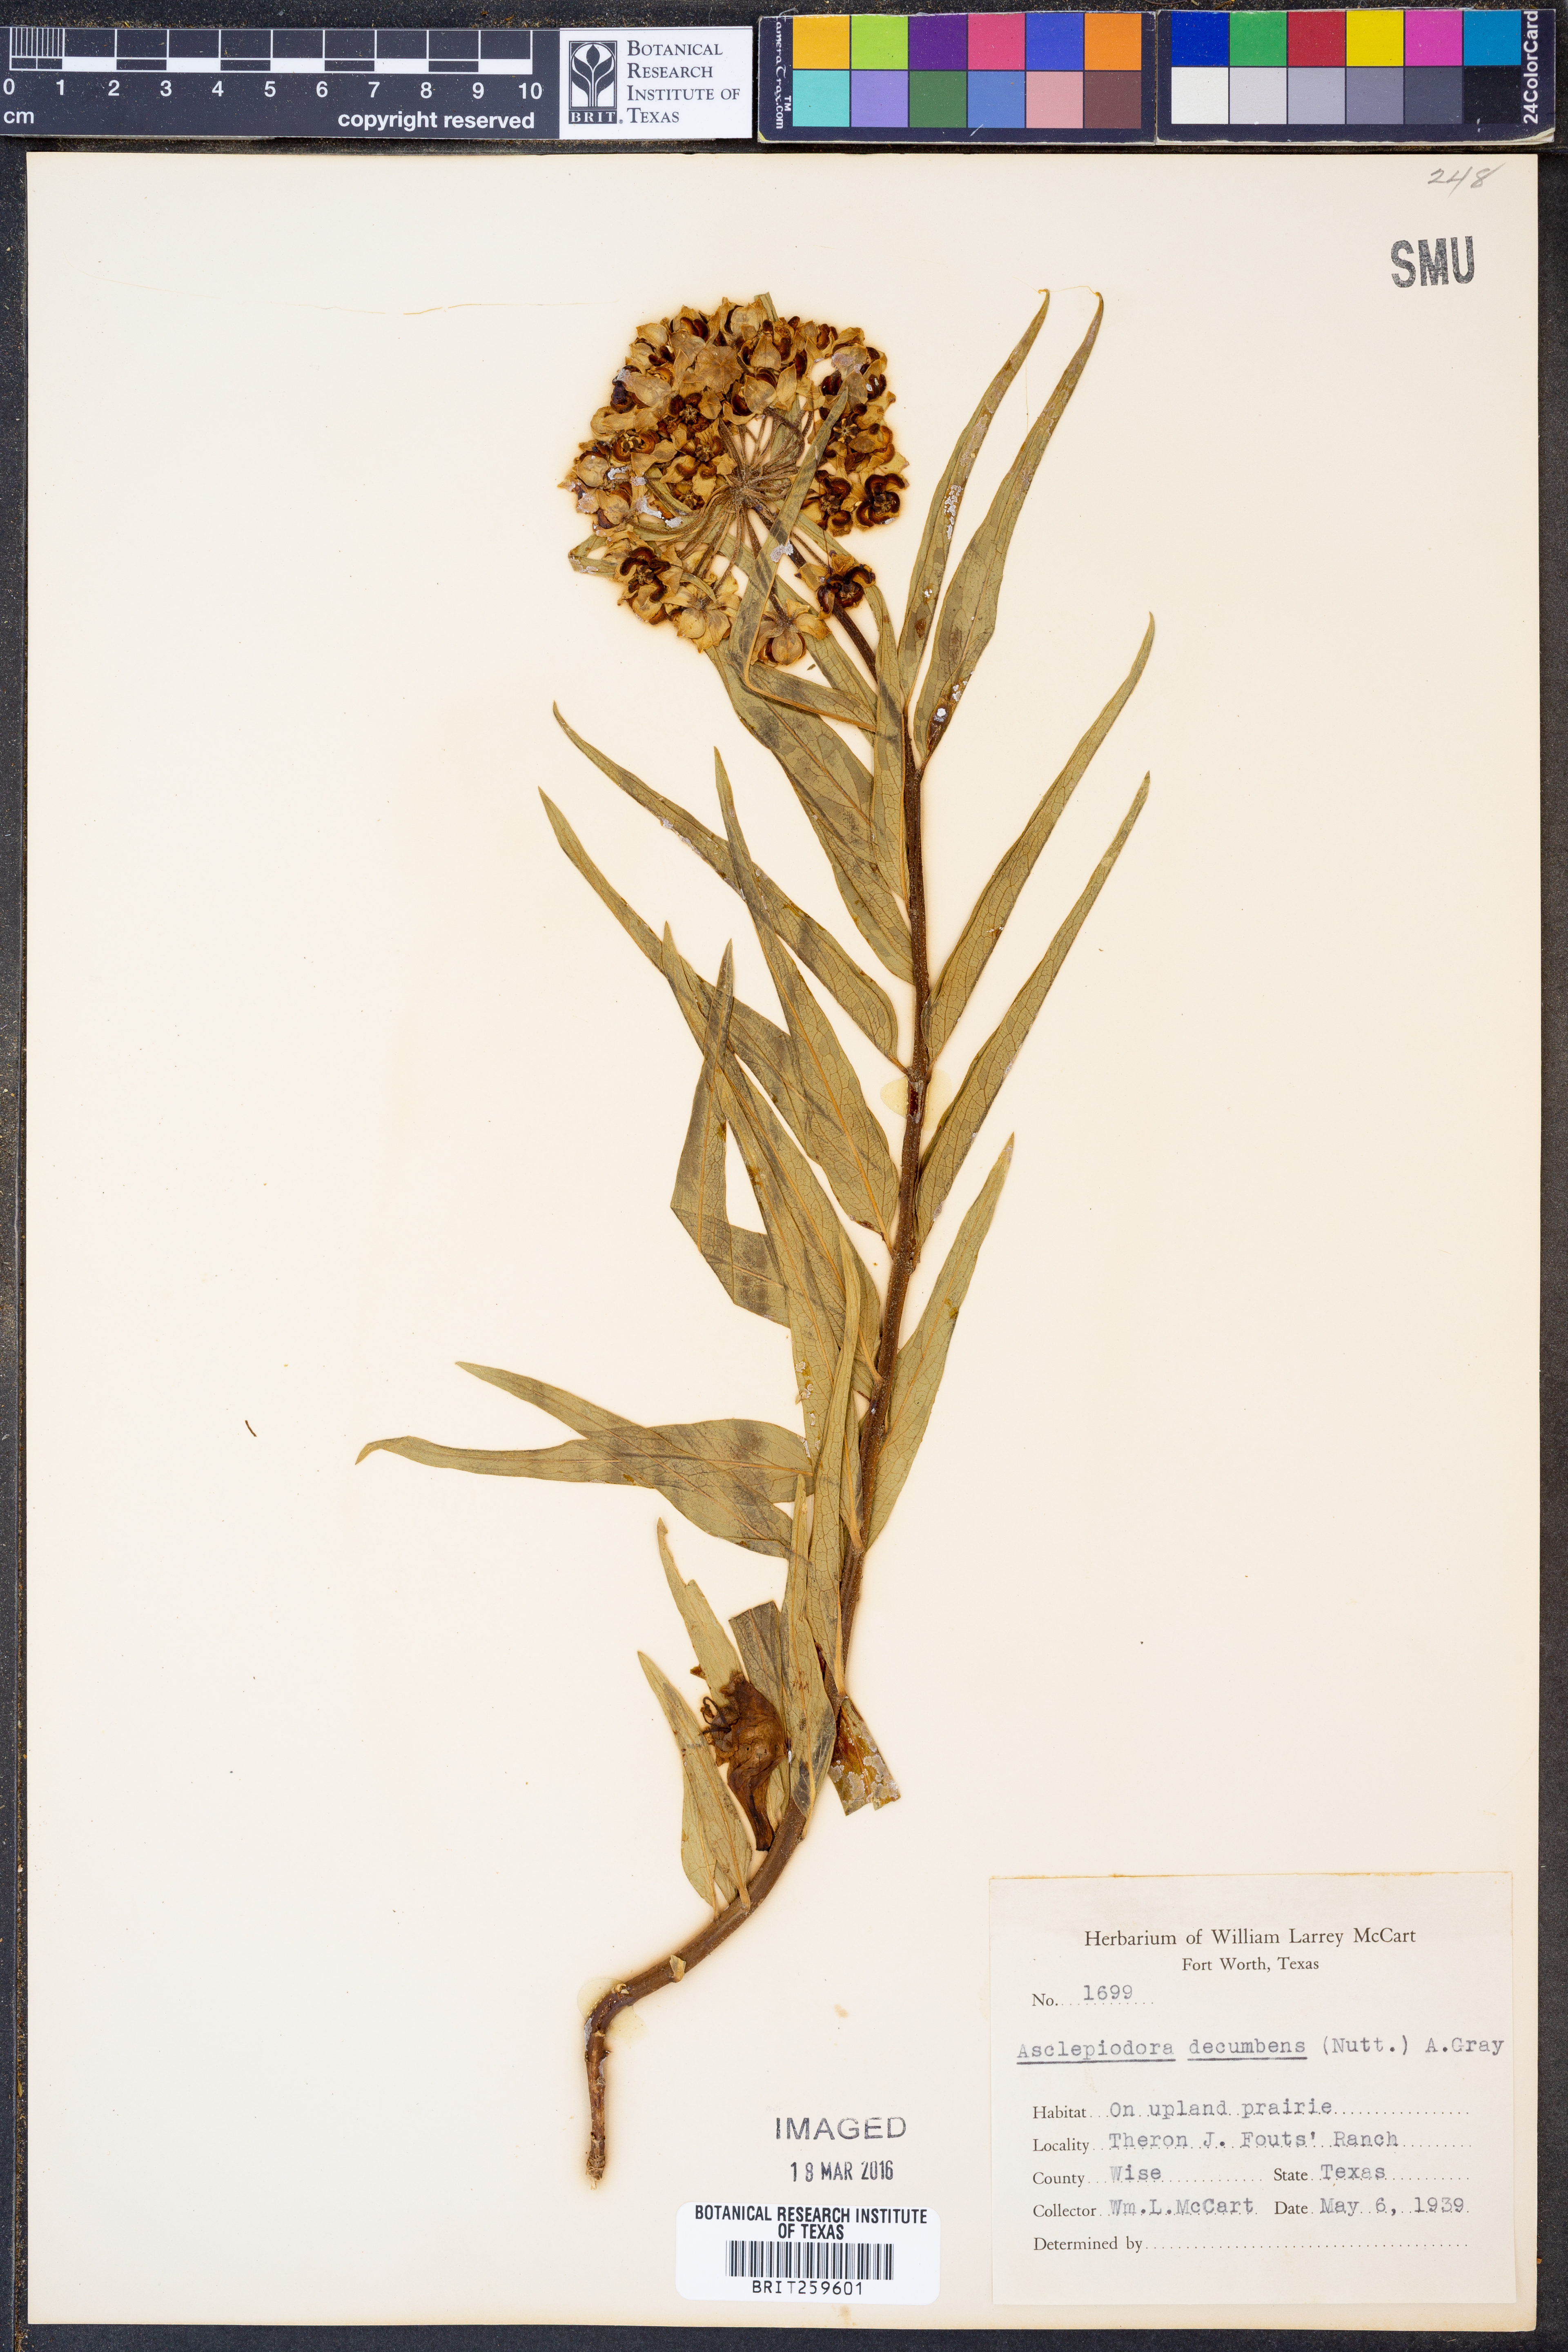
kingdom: Plantae
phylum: Tracheophyta
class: Magnoliopsida
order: Gentianales
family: Apocynaceae
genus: Asclepias
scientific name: Asclepias tuberosa
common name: Butterfly milkweed
